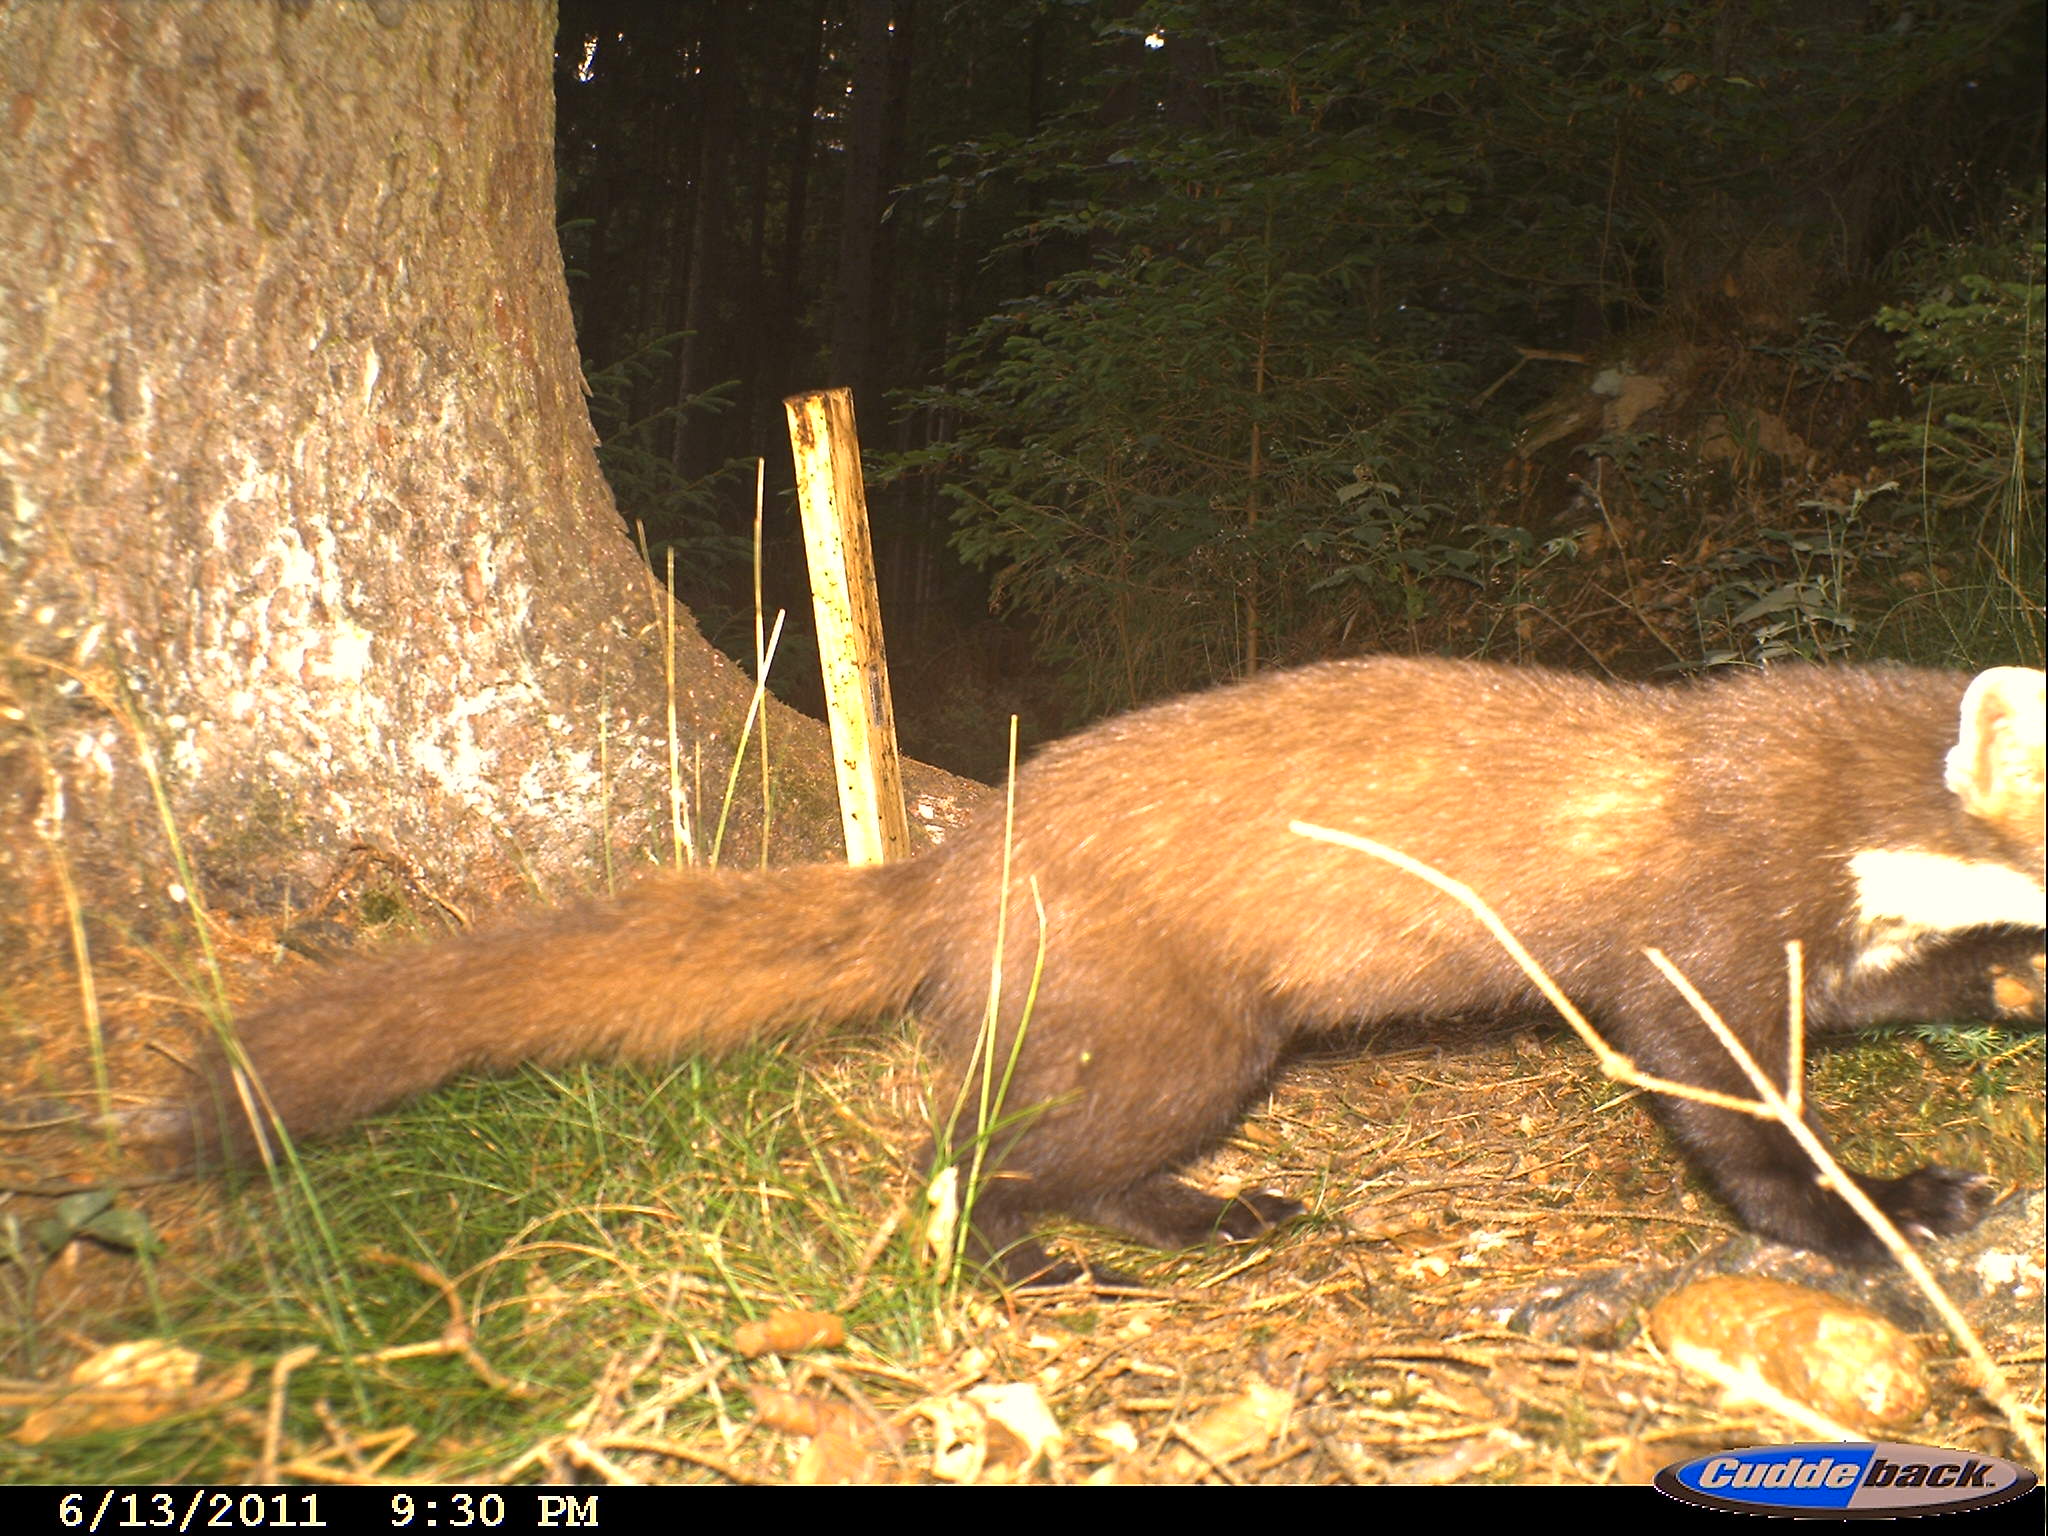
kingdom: Animalia
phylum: Chordata
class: Mammalia
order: Carnivora
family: Mustelidae
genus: Martes
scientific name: Martes martes
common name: European pine marten
